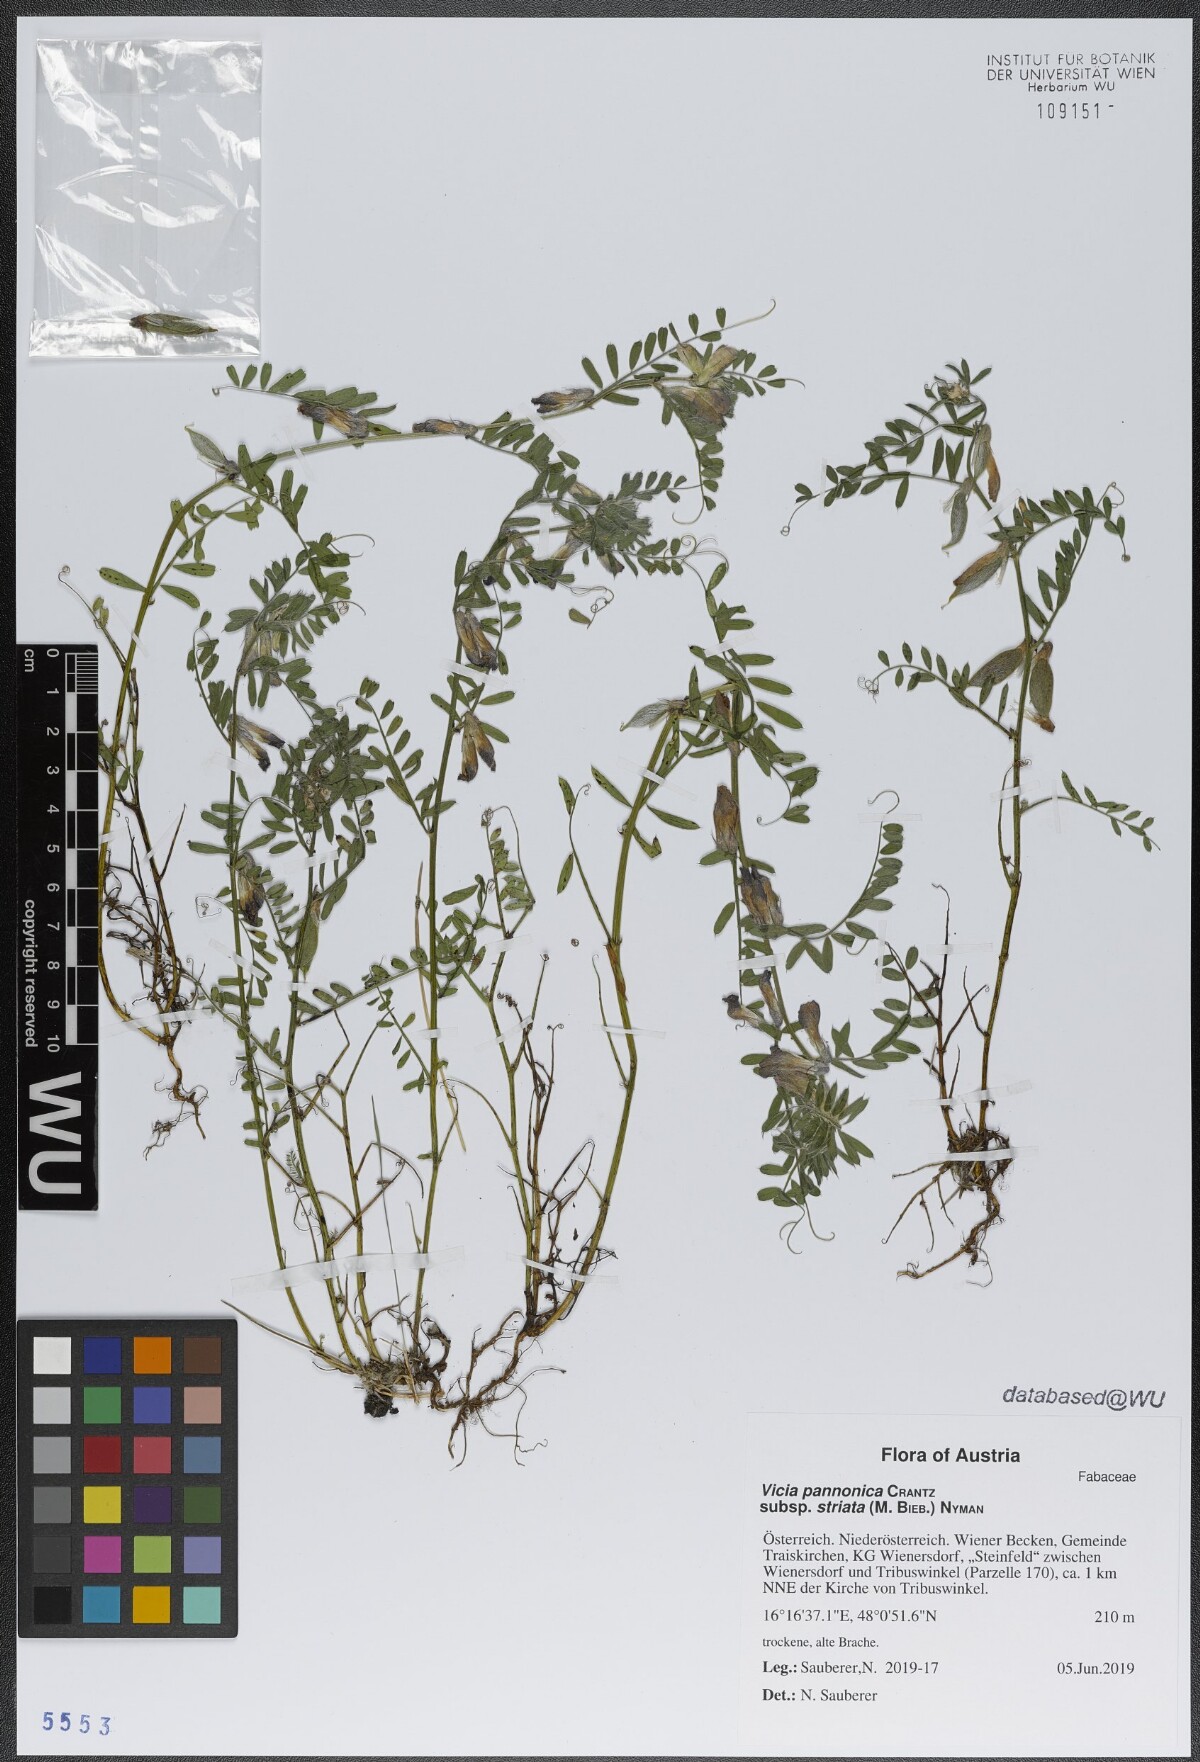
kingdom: Plantae
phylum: Tracheophyta
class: Magnoliopsida
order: Fabales
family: Fabaceae
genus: Vicia
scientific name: Vicia pannonica
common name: Hungarian vetch
